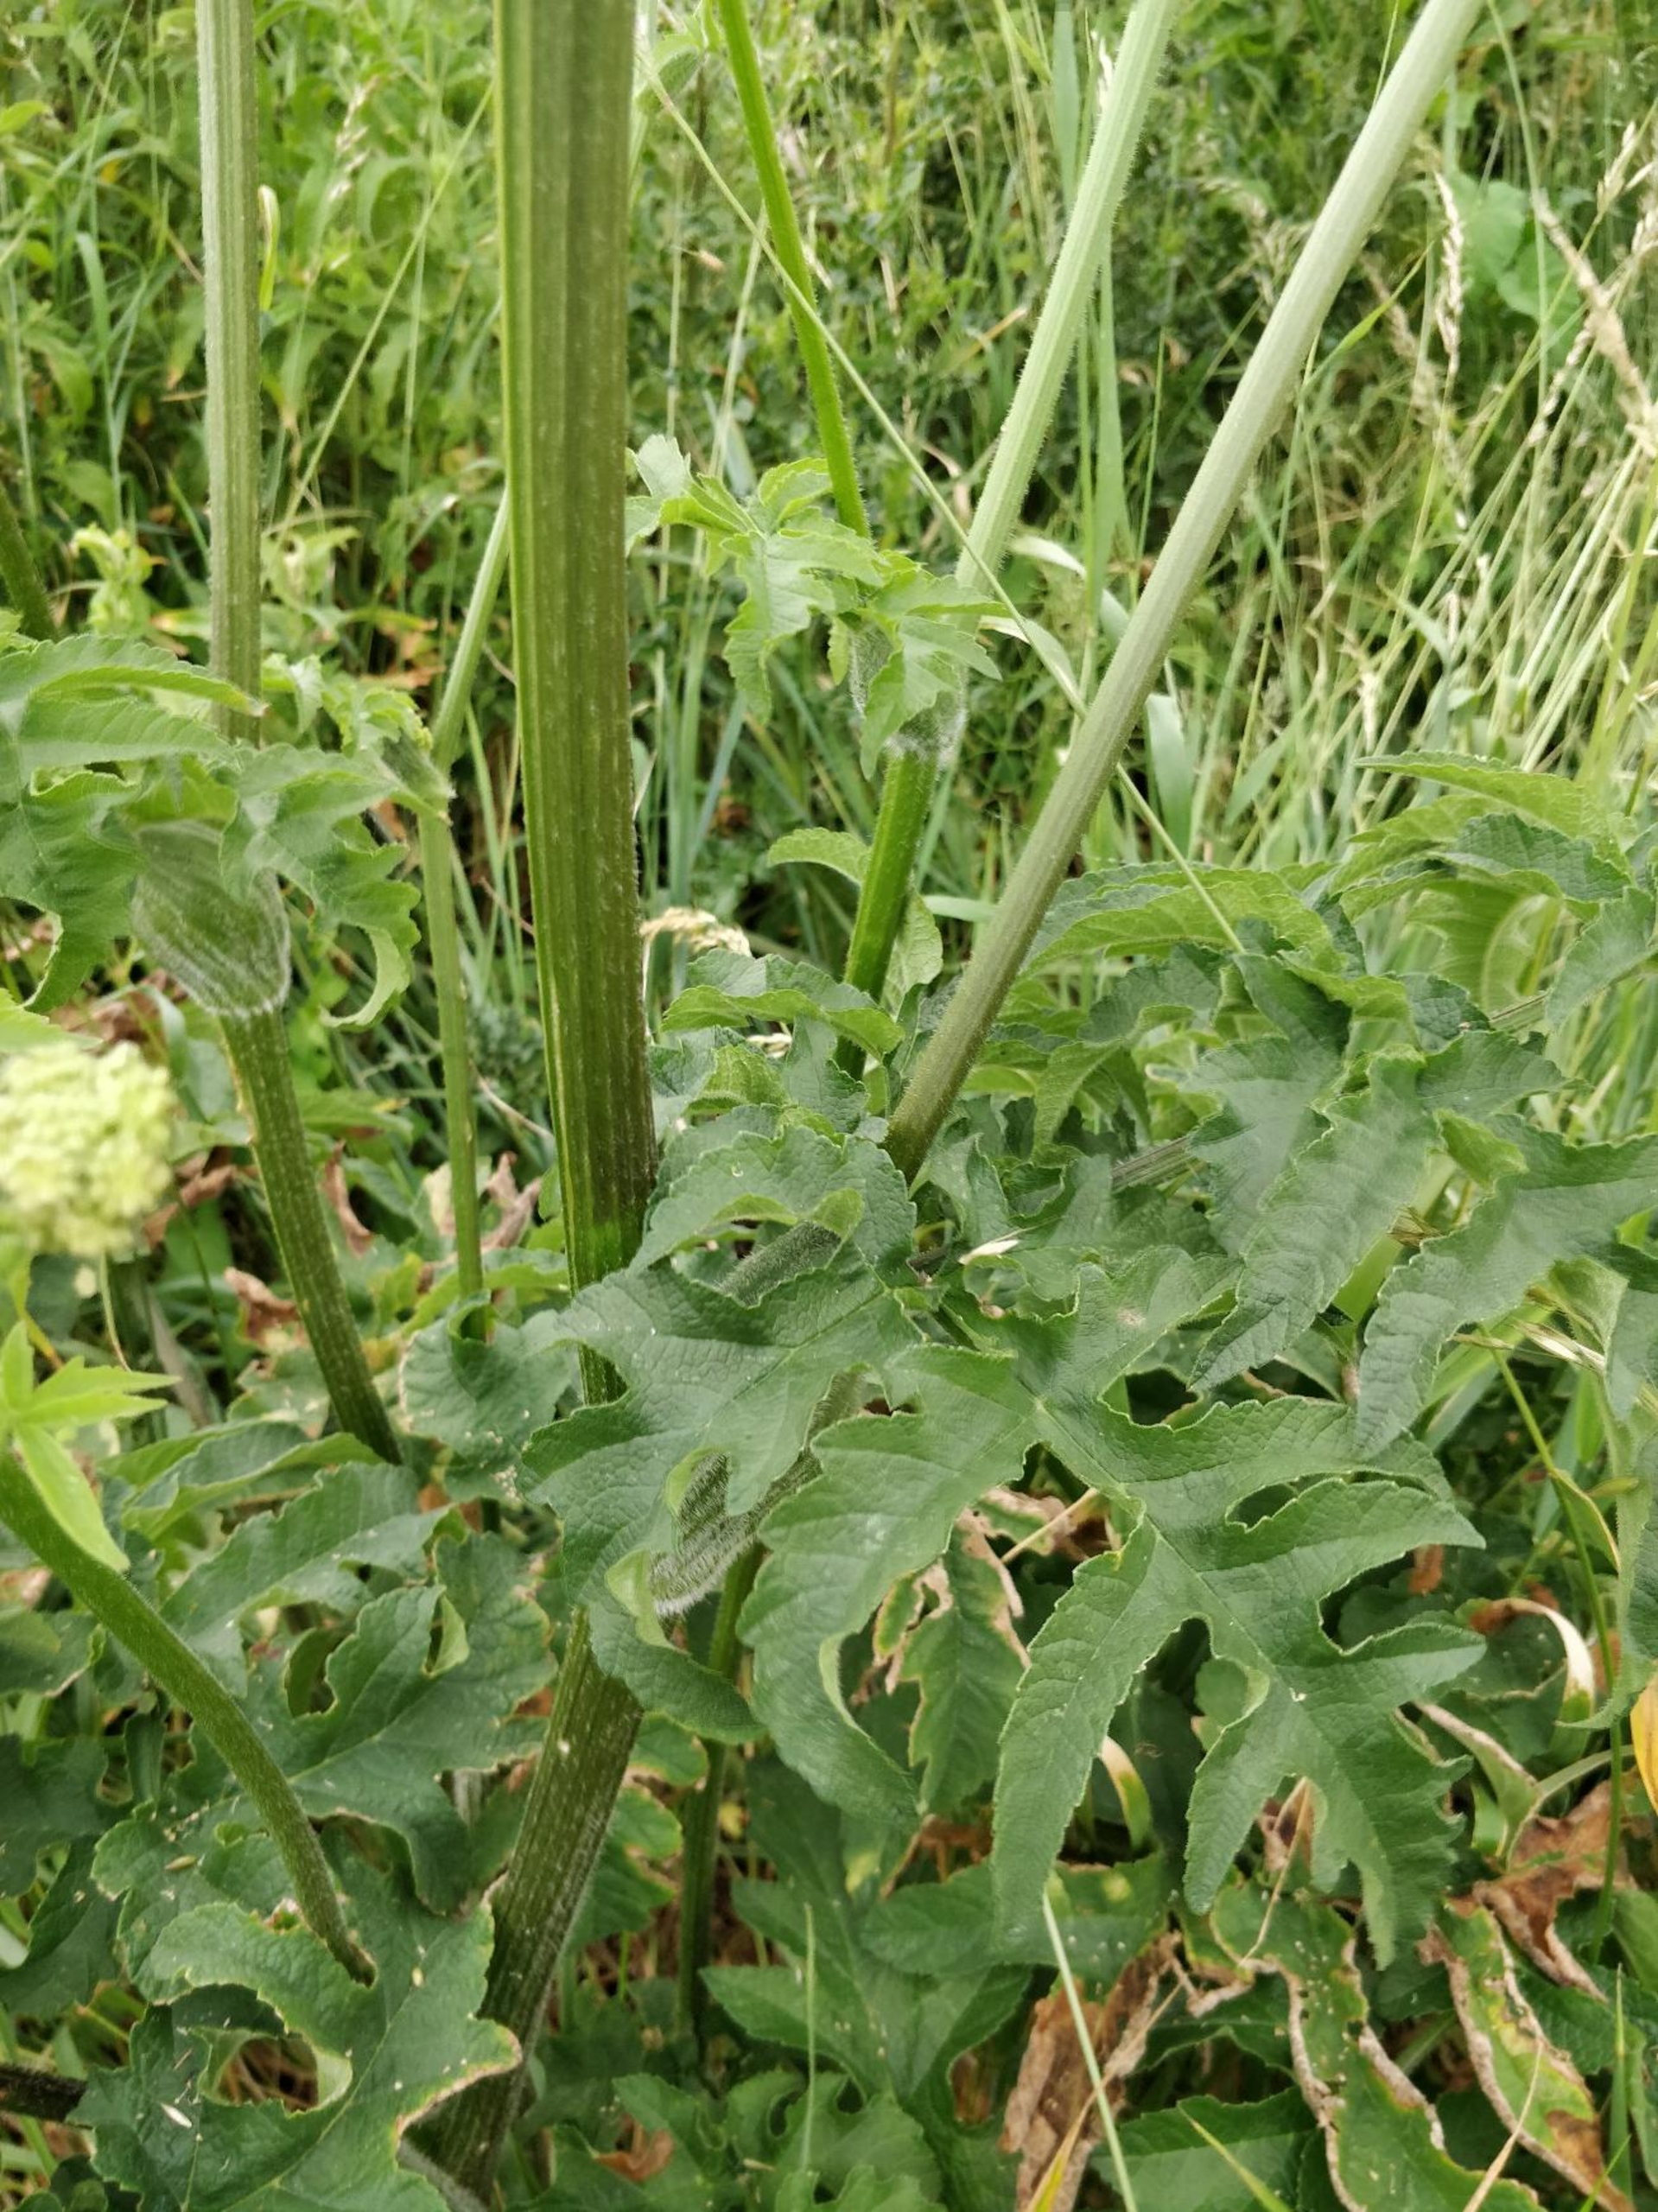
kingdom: Plantae
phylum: Tracheophyta
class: Magnoliopsida
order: Apiales
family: Apiaceae
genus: Heracleum
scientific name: Heracleum sphondylium
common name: Almindelig bjørneklo
